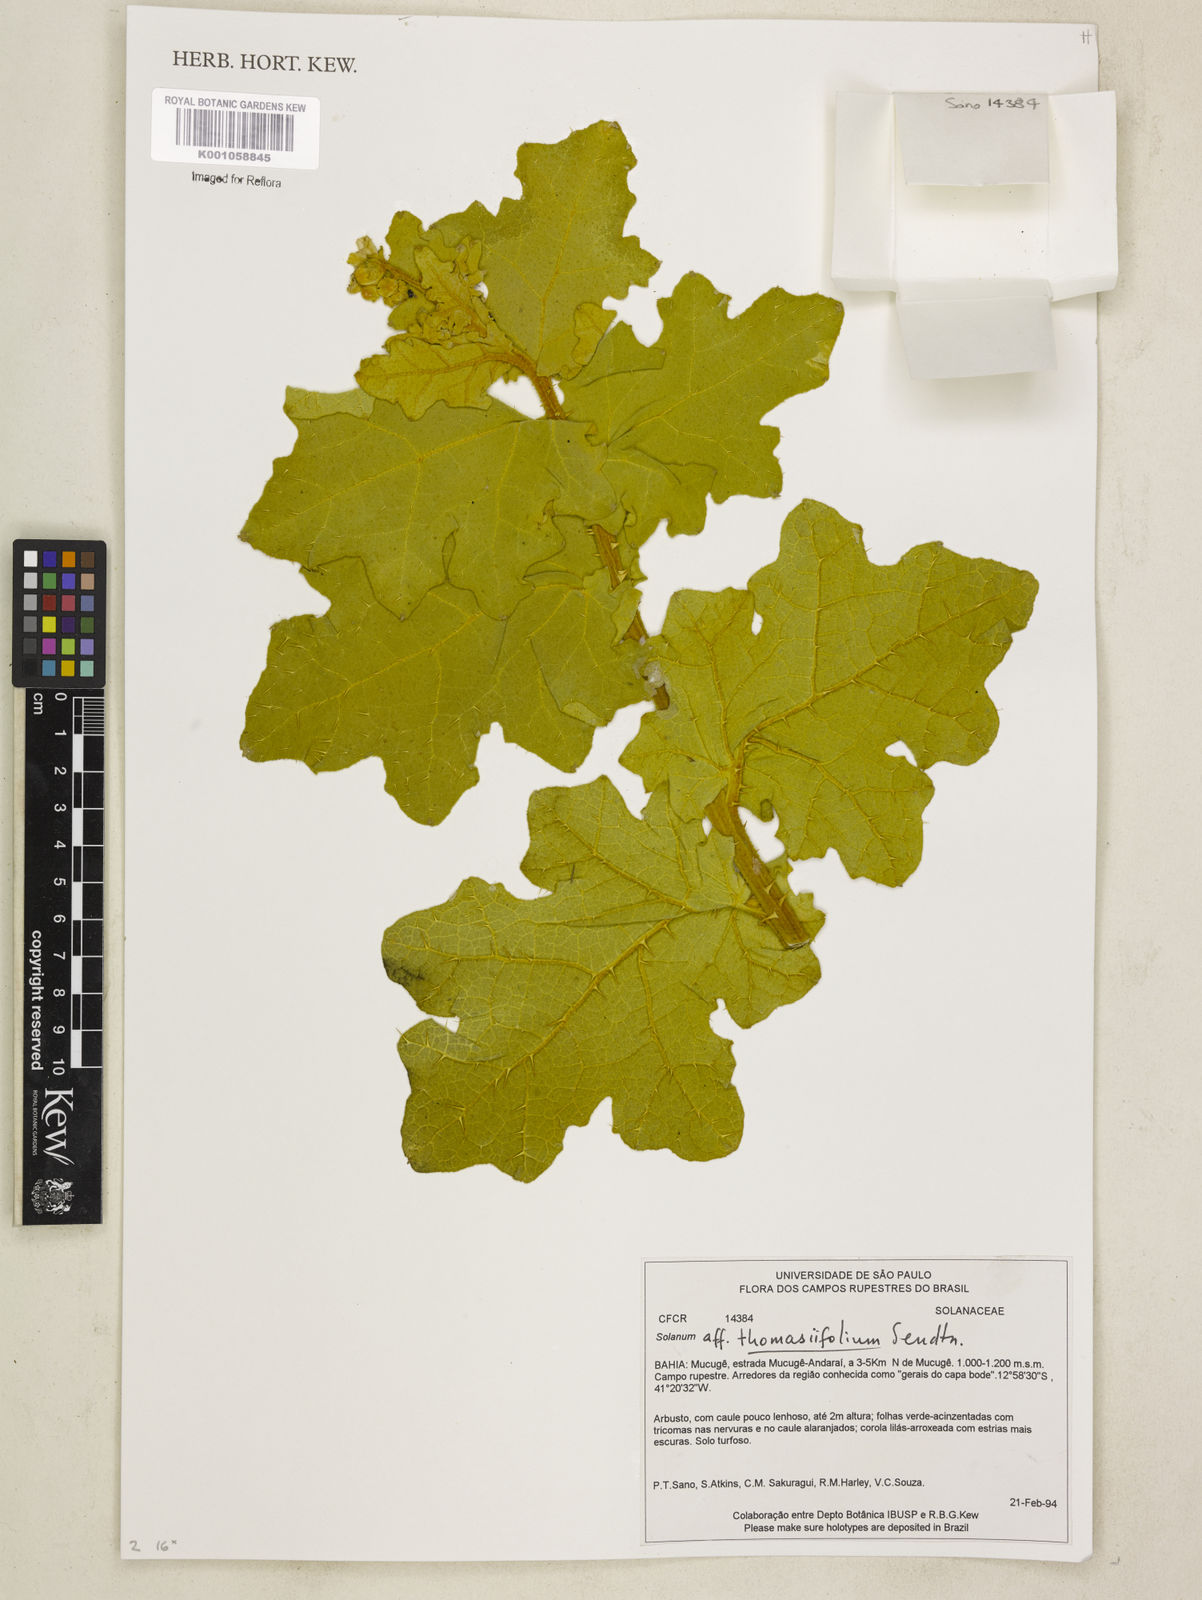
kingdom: Plantae
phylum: Tracheophyta
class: Magnoliopsida
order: Solanales
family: Solanaceae
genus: Solanum
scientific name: Solanum thomasiifolium
